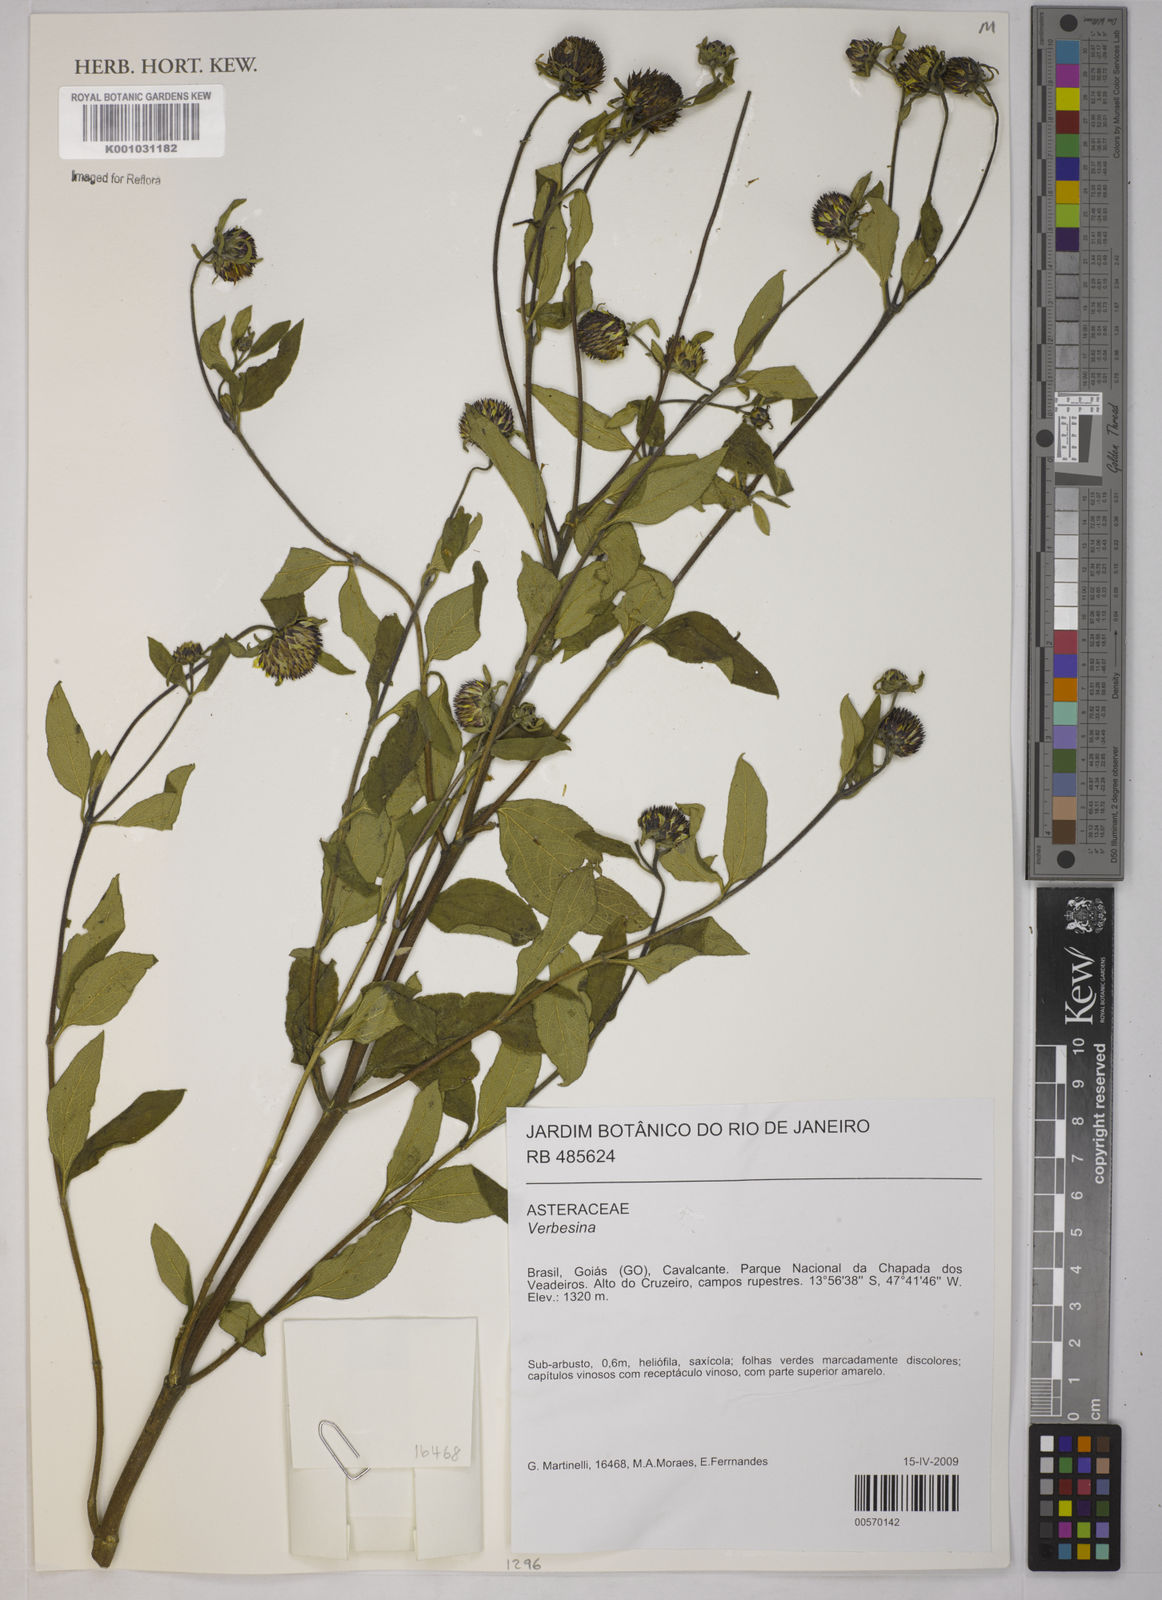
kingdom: Plantae
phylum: Tracheophyta
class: Magnoliopsida
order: Asterales
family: Asteraceae
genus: Verbesina
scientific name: Verbesina
